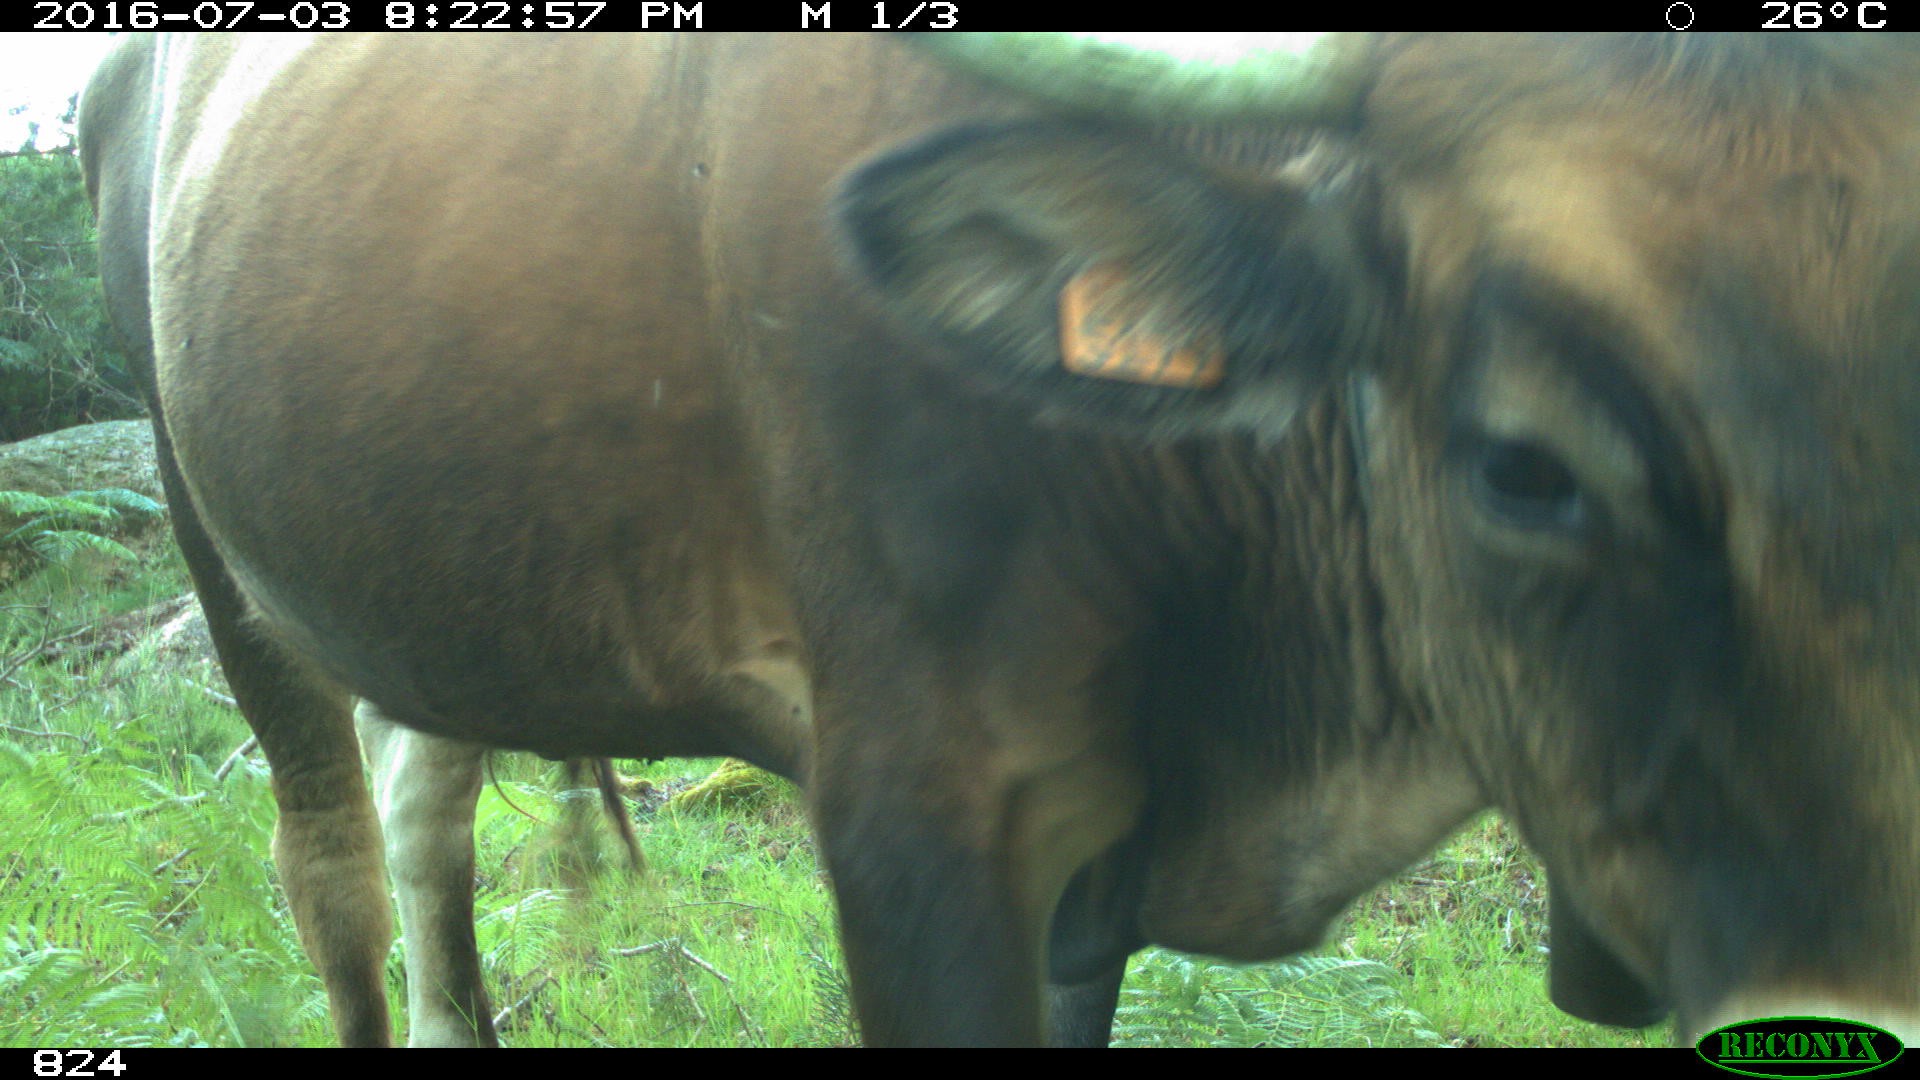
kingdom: Animalia
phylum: Chordata
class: Mammalia
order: Artiodactyla
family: Bovidae
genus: Bos
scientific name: Bos taurus
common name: Domesticated cattle
